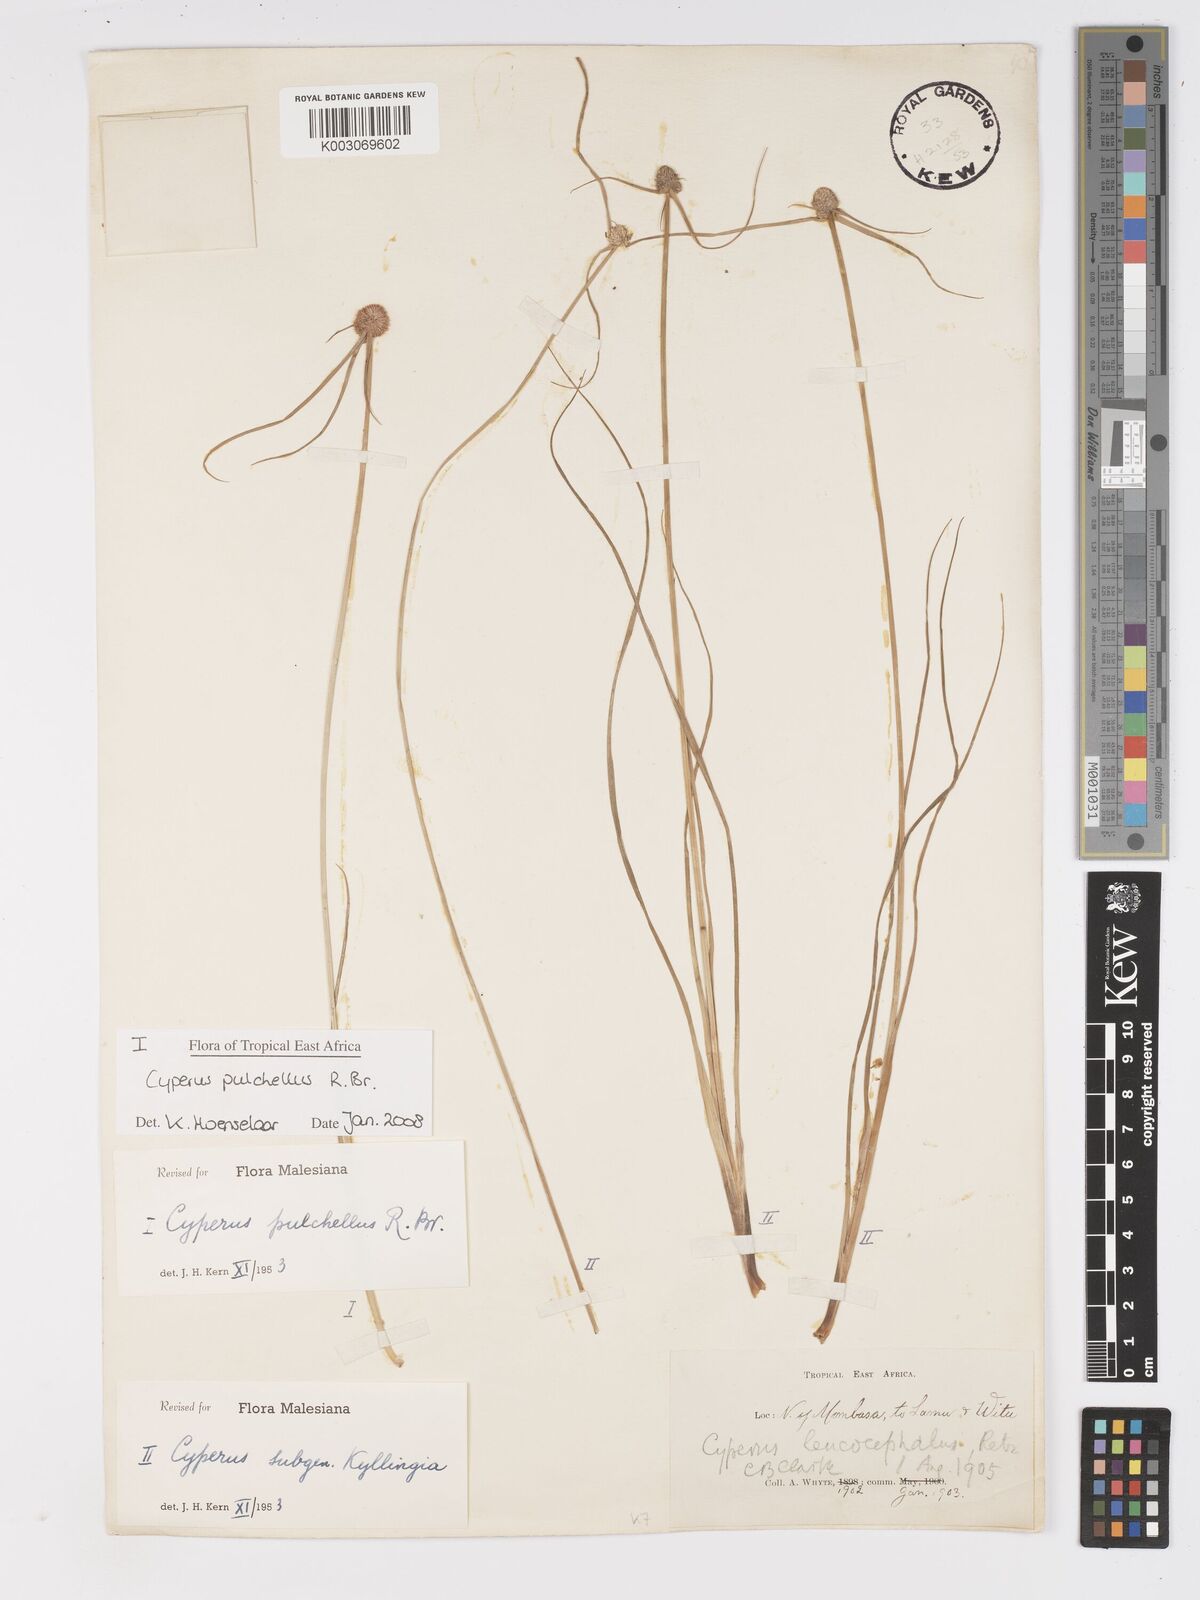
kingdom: Plantae
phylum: Tracheophyta
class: Liliopsida
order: Poales
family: Cyperaceae
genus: Cyperus
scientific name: Cyperus pulchellus
